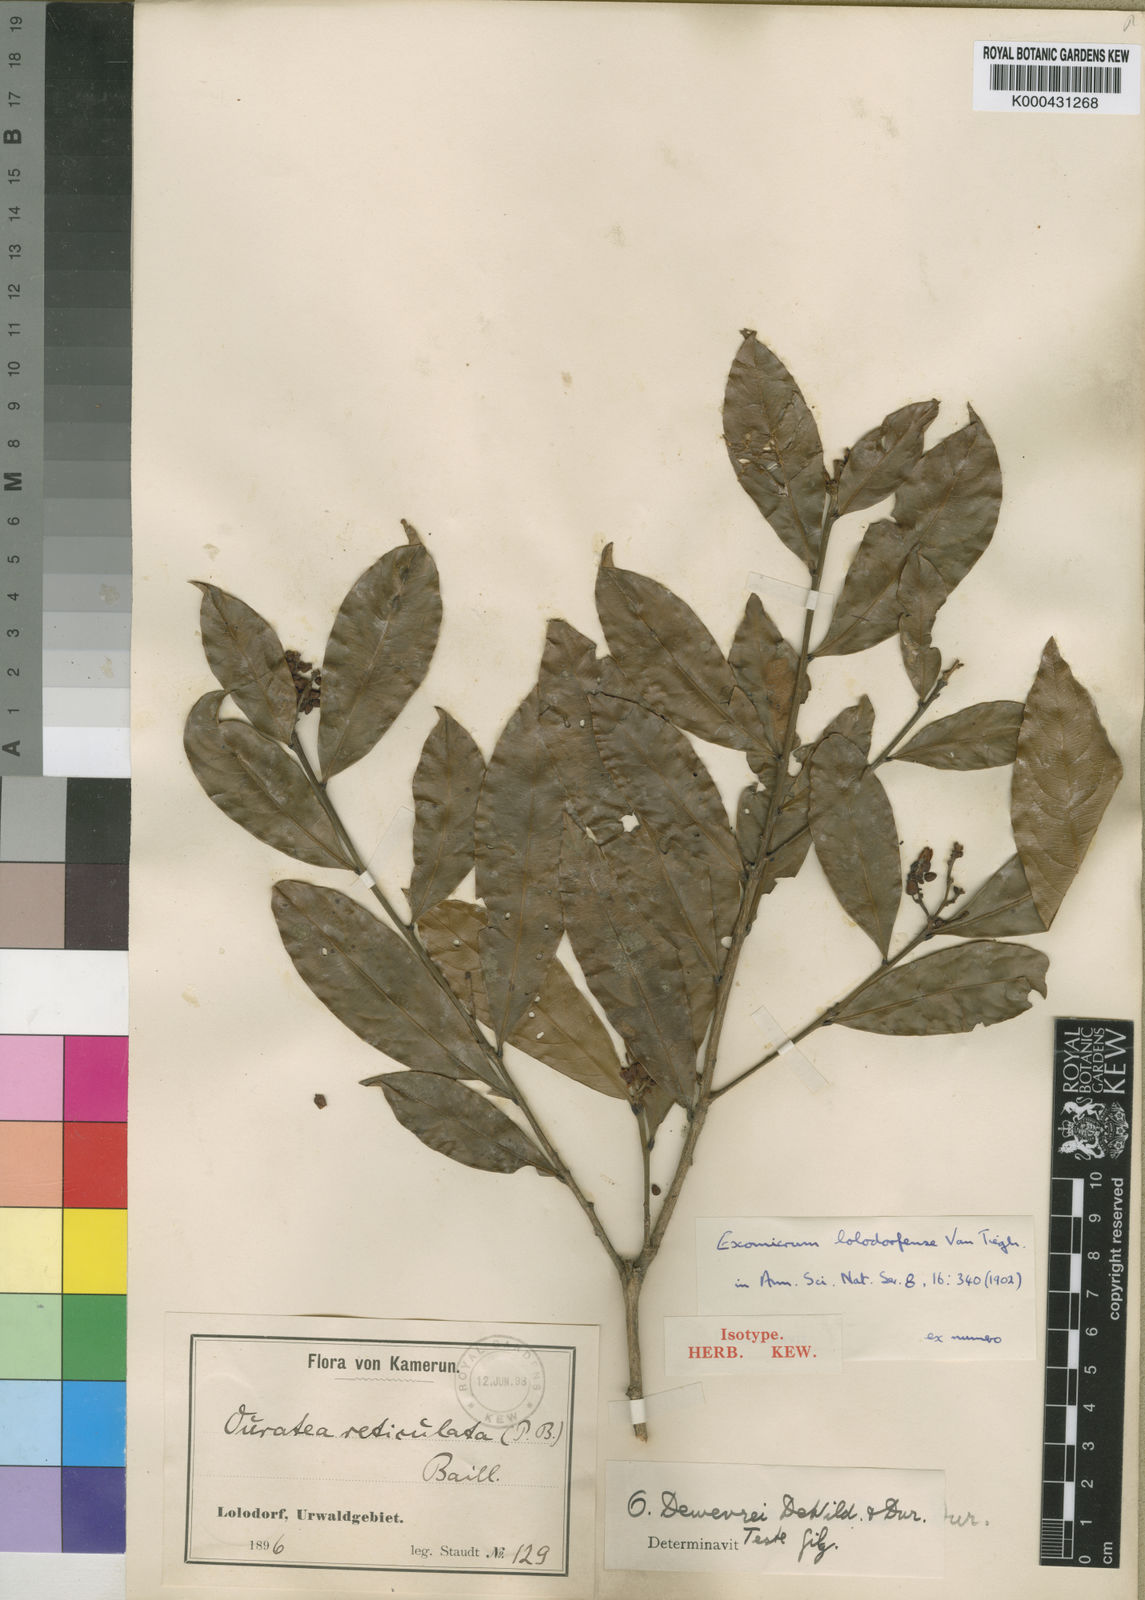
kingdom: Plantae
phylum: Tracheophyta
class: Magnoliopsida
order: Malpighiales
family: Ochnaceae
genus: Campylospermum
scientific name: Campylospermum vogelii
